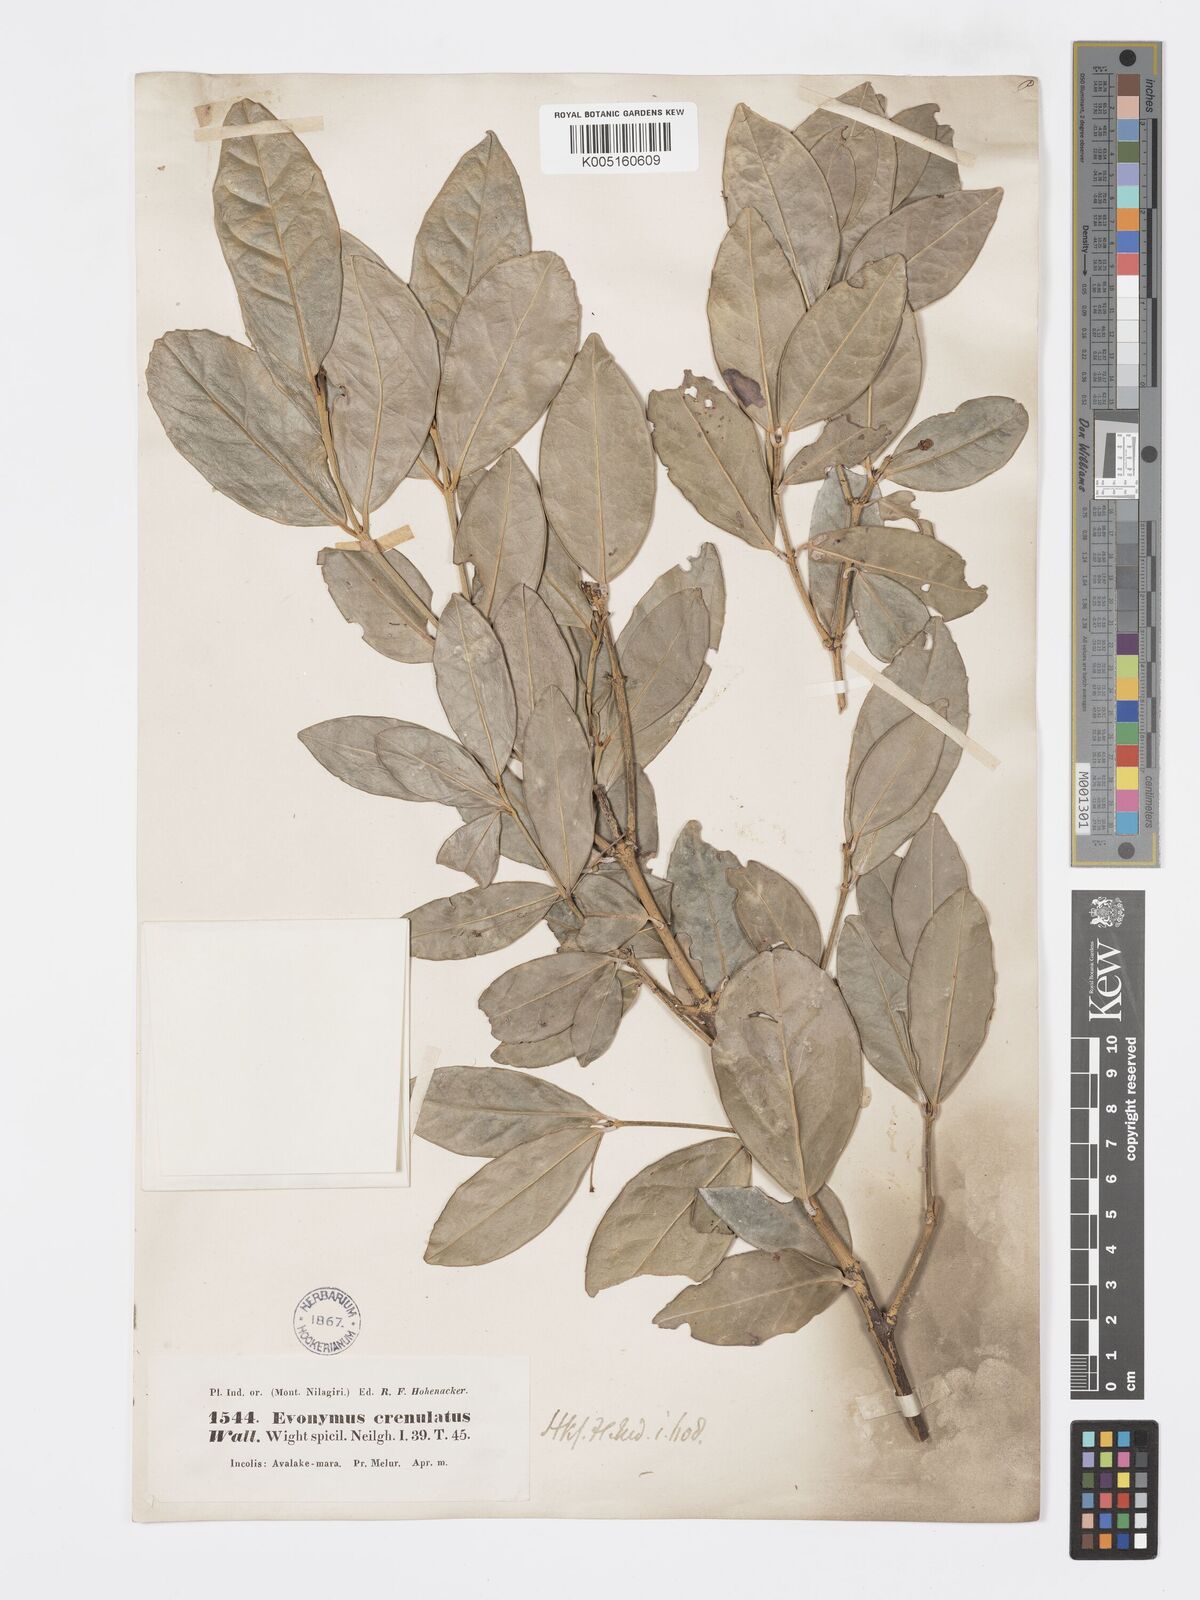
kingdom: Plantae
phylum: Tracheophyta
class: Magnoliopsida
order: Celastrales
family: Celastraceae
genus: Euonymus
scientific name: Euonymus crenulatus
